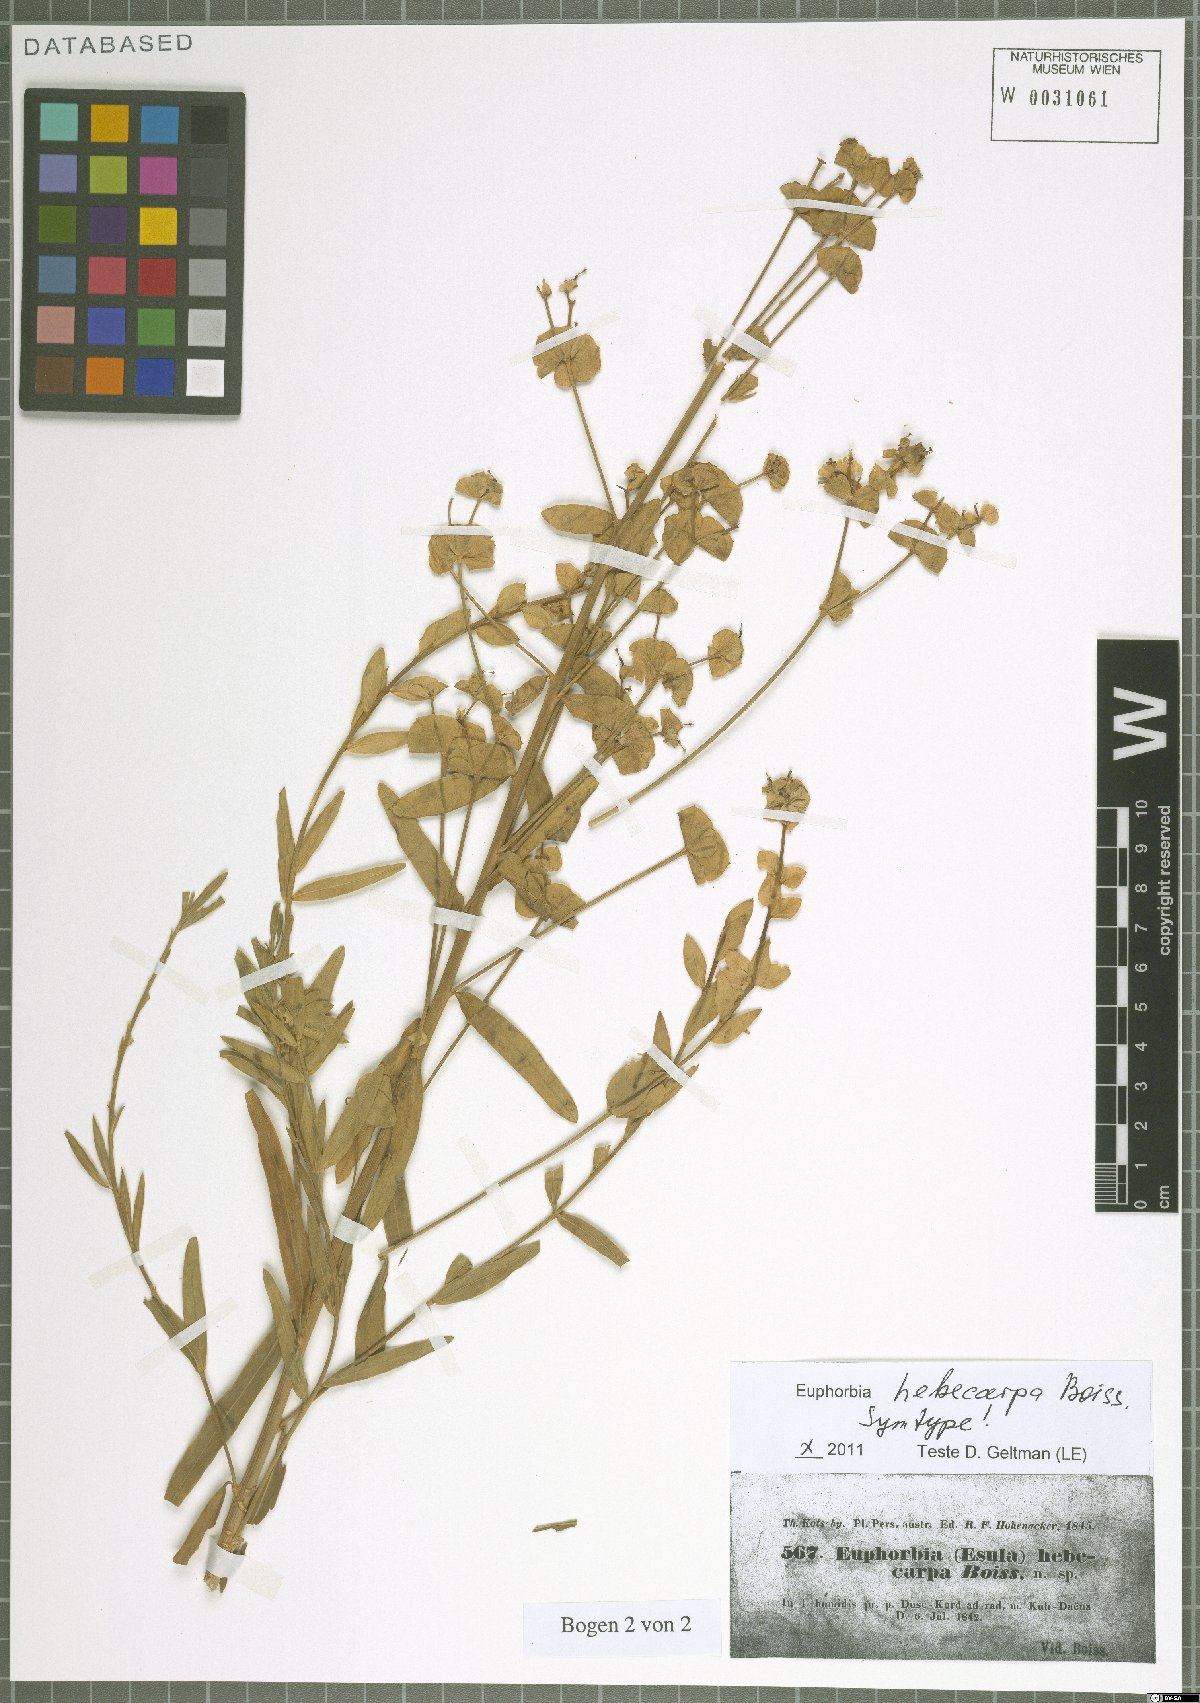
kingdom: Plantae
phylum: Tracheophyta
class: Magnoliopsida
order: Malpighiales
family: Euphorbiaceae
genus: Euphorbia
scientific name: Euphorbia hebecarpa
